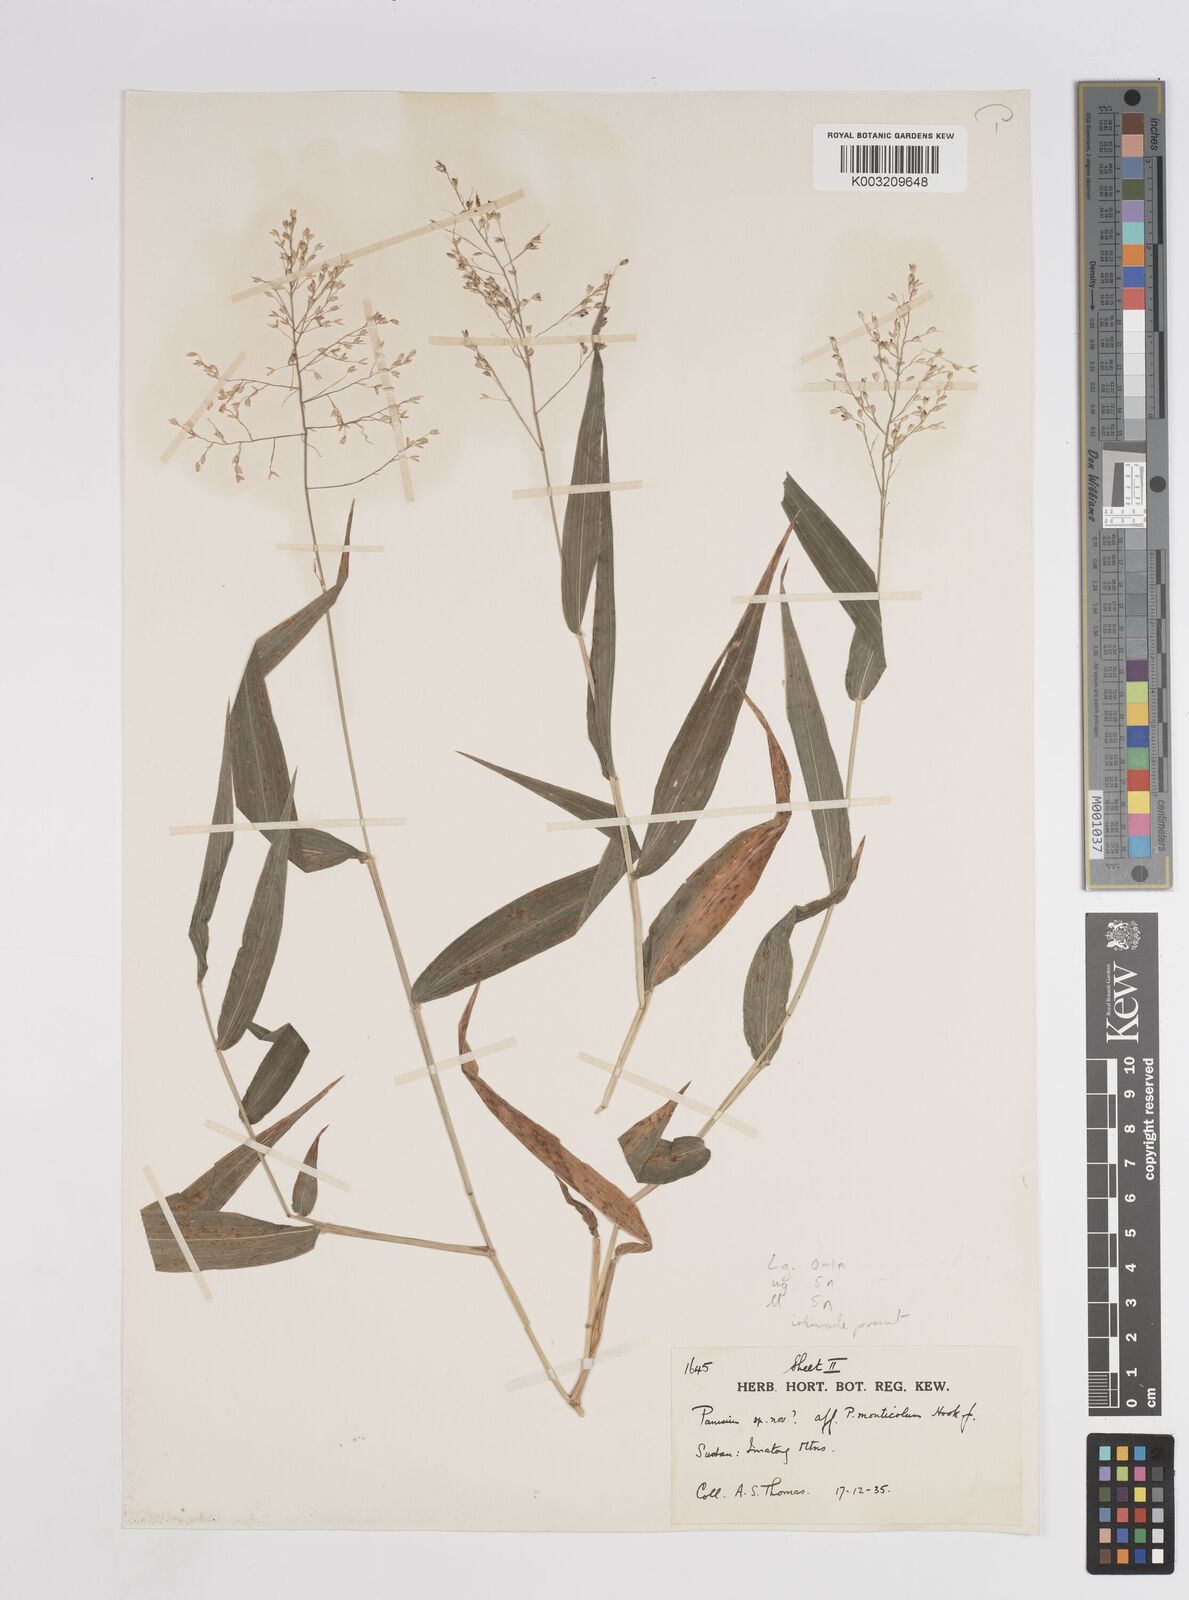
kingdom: Plantae
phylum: Tracheophyta
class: Liliopsida
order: Poales
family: Poaceae
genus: Panicum
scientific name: Panicum
